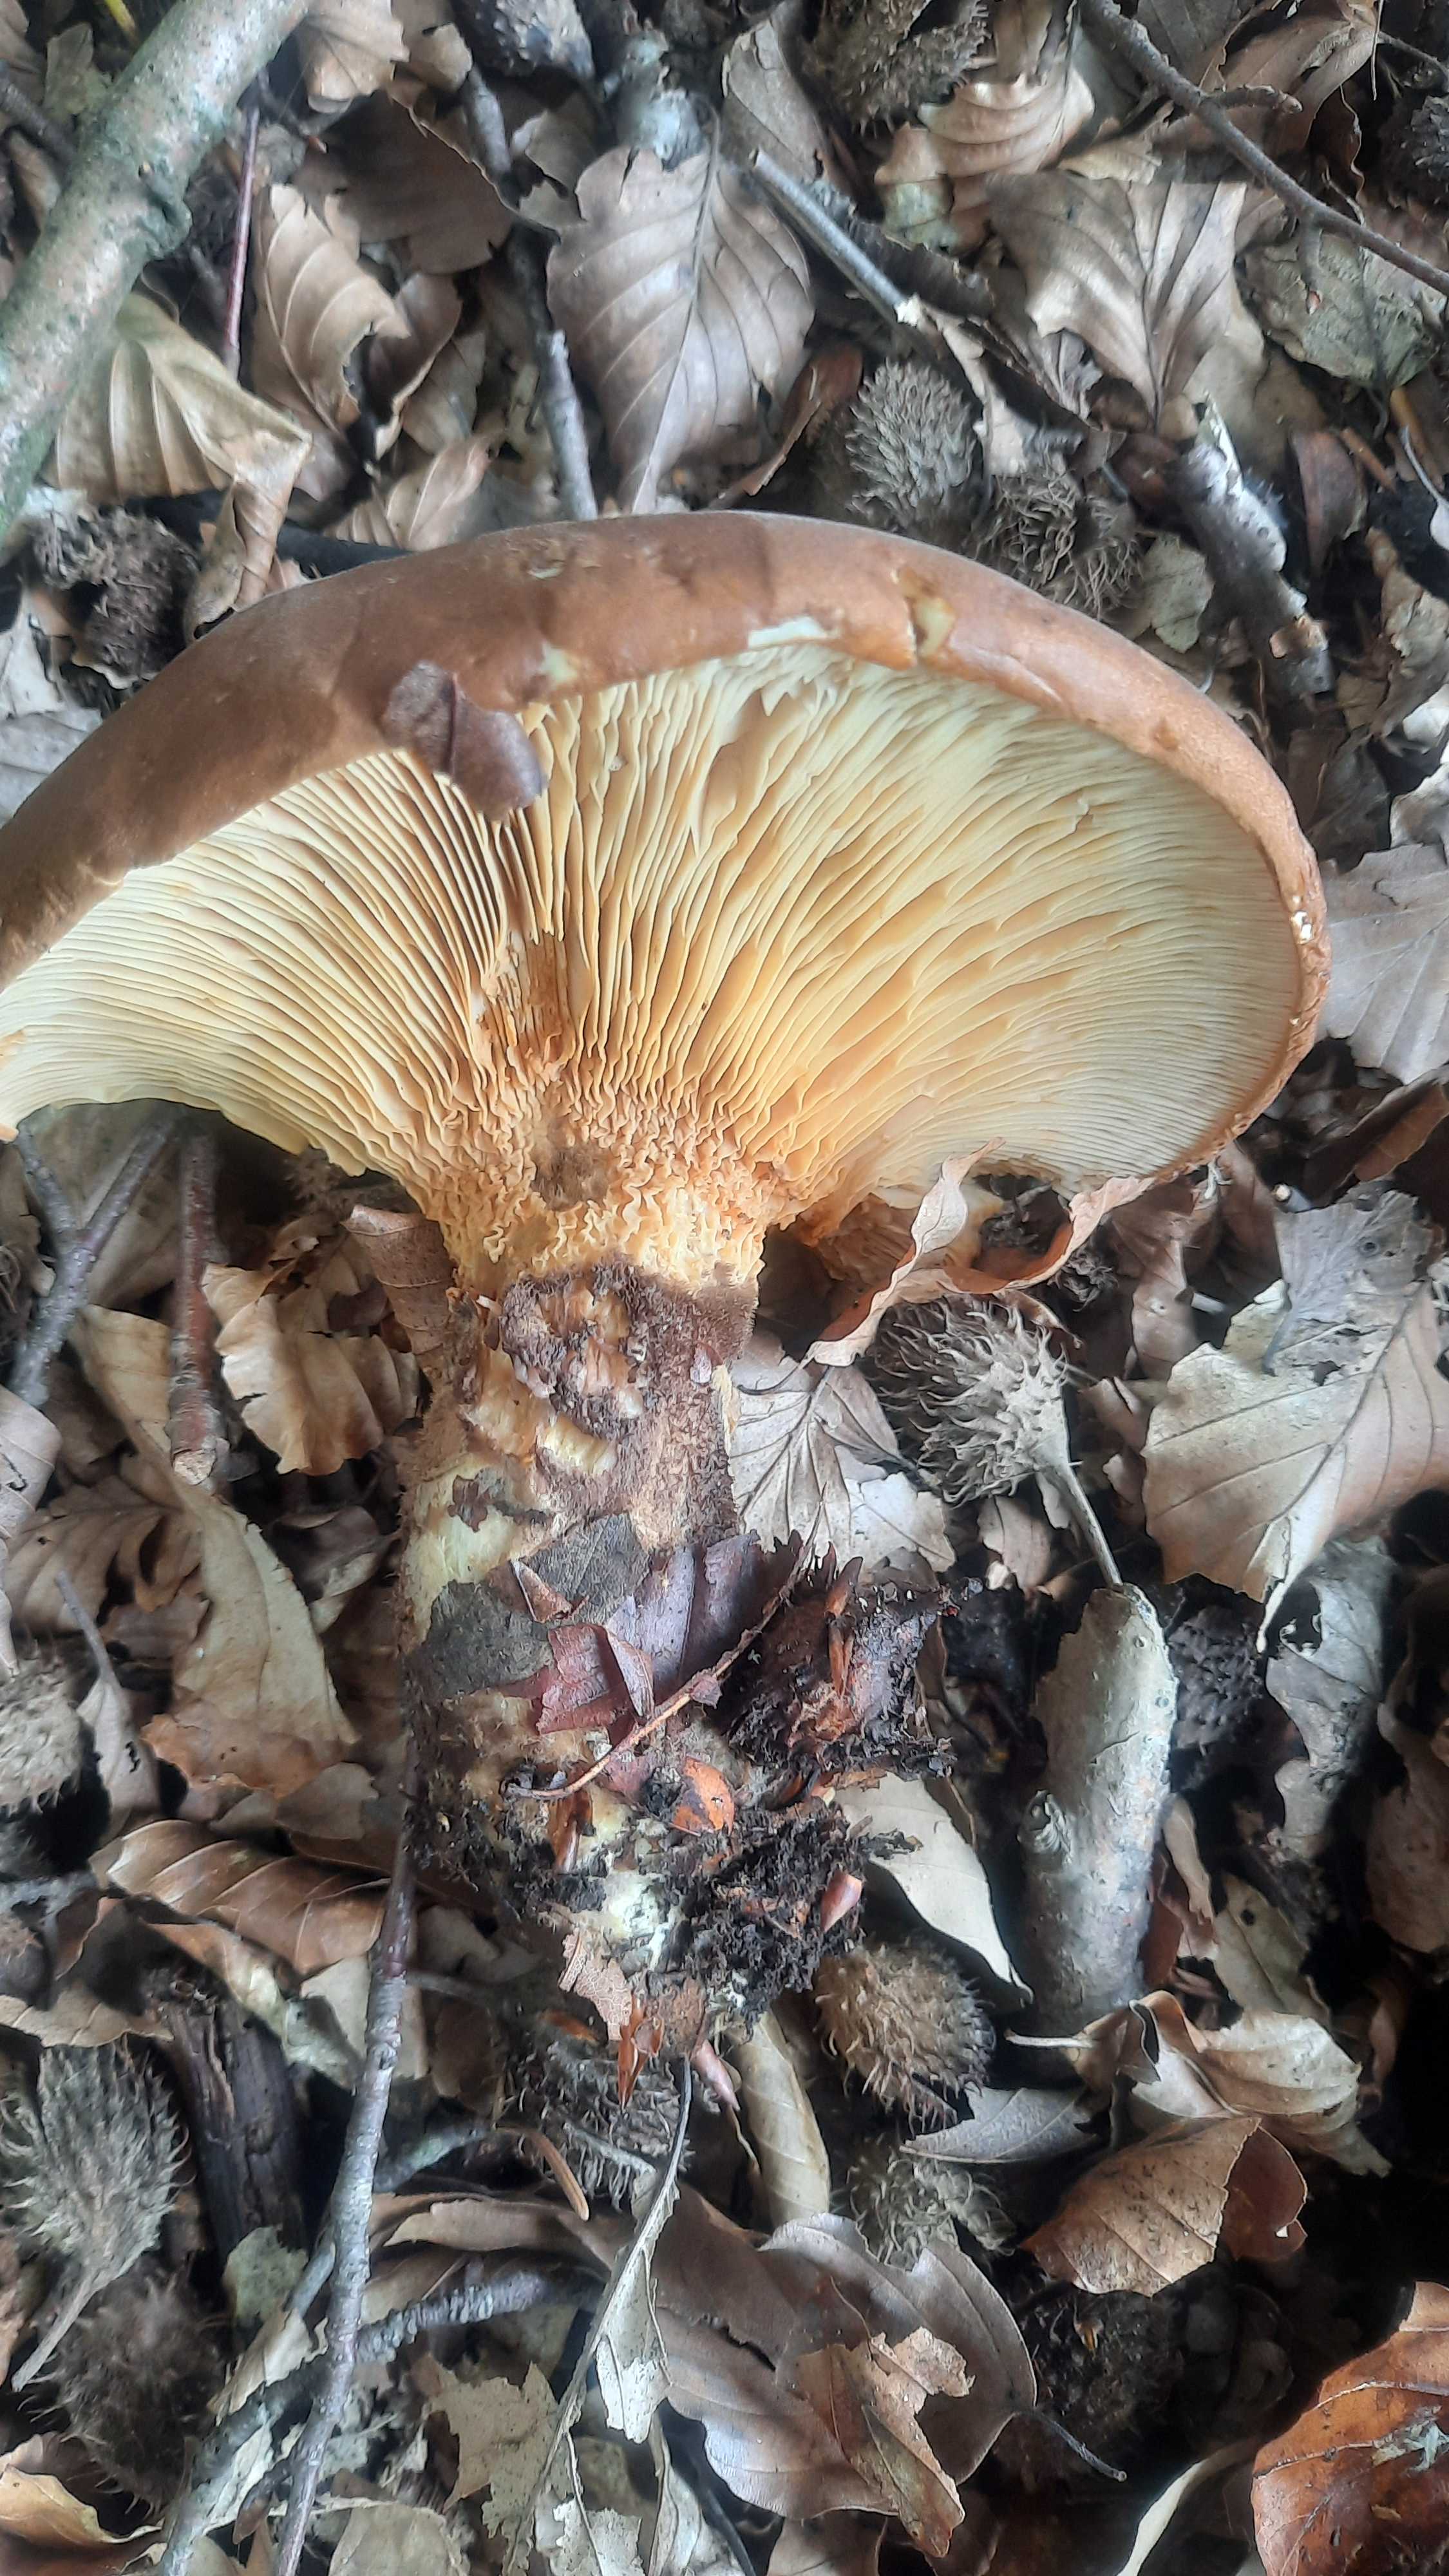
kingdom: Fungi
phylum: Basidiomycota
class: Agaricomycetes
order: Boletales
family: Tapinellaceae
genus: Tapinella
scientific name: Tapinella atrotomentosa
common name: sortfiltet viftesvamp
